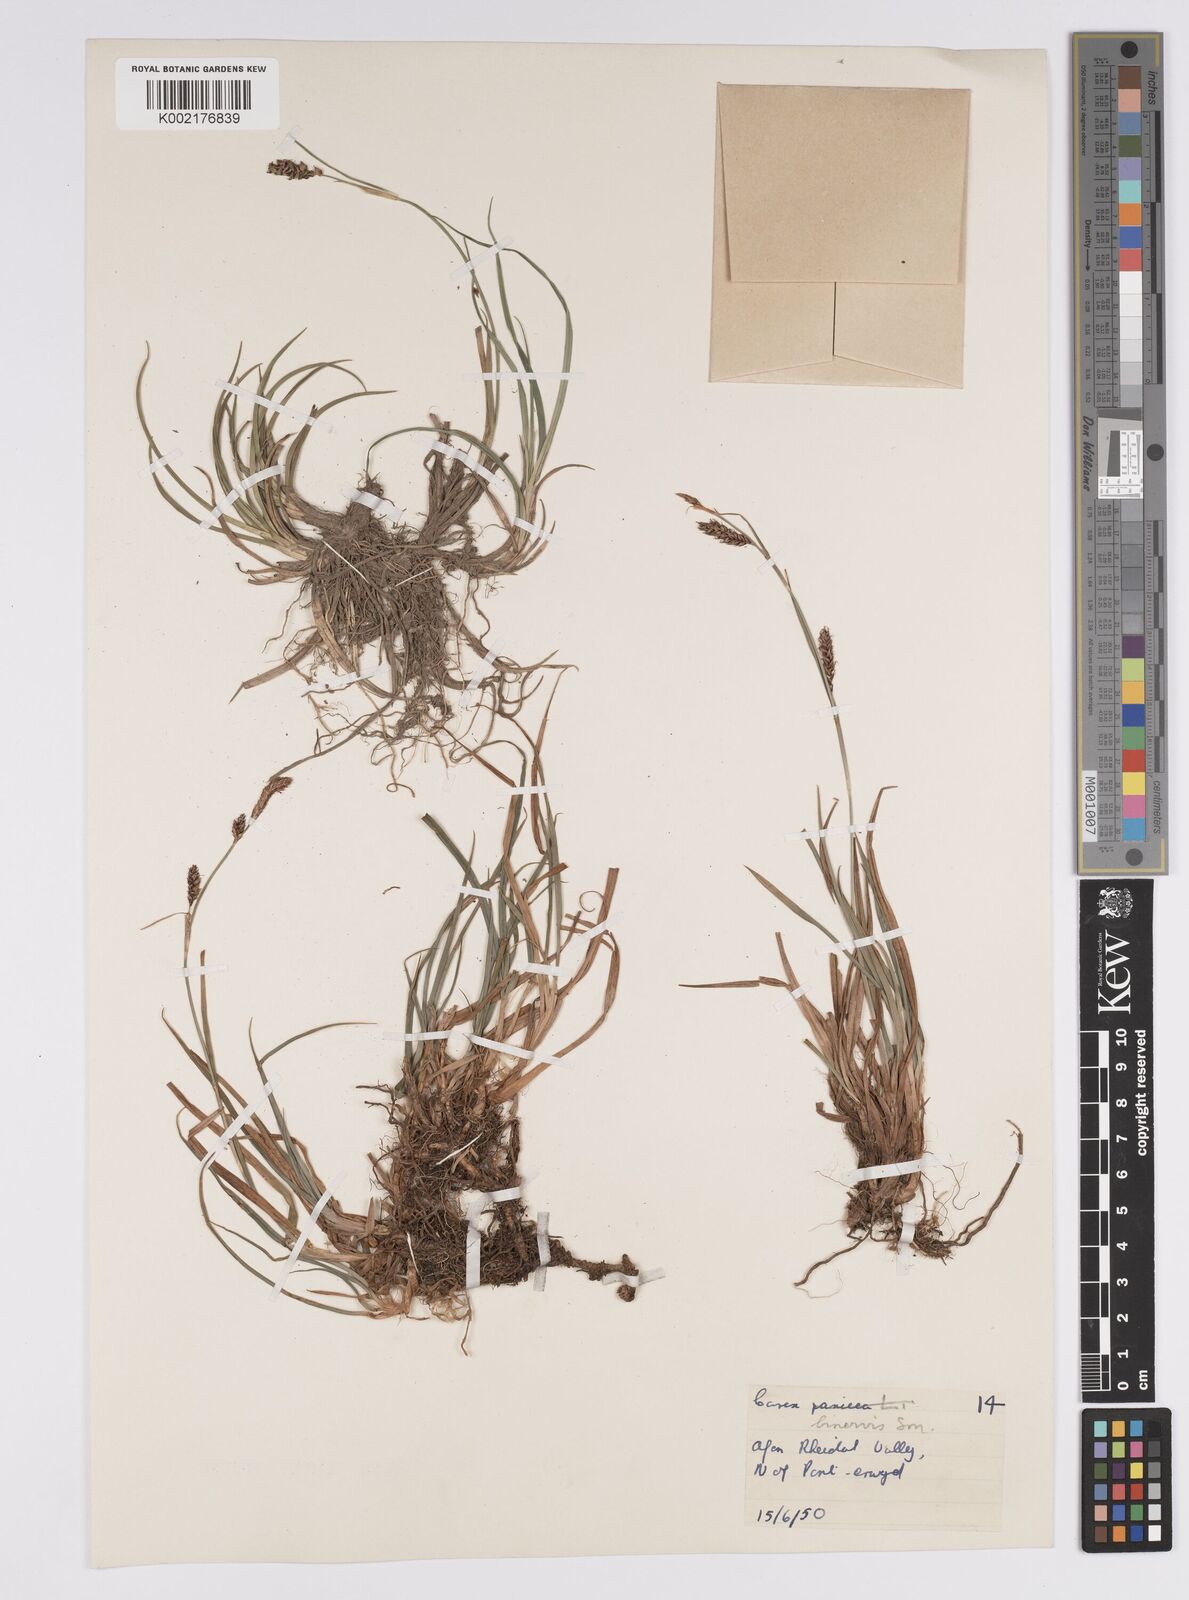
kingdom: Plantae
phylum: Tracheophyta
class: Liliopsida
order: Poales
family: Cyperaceae
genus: Carex
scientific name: Carex binervis
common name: Green-ribbed sedge
